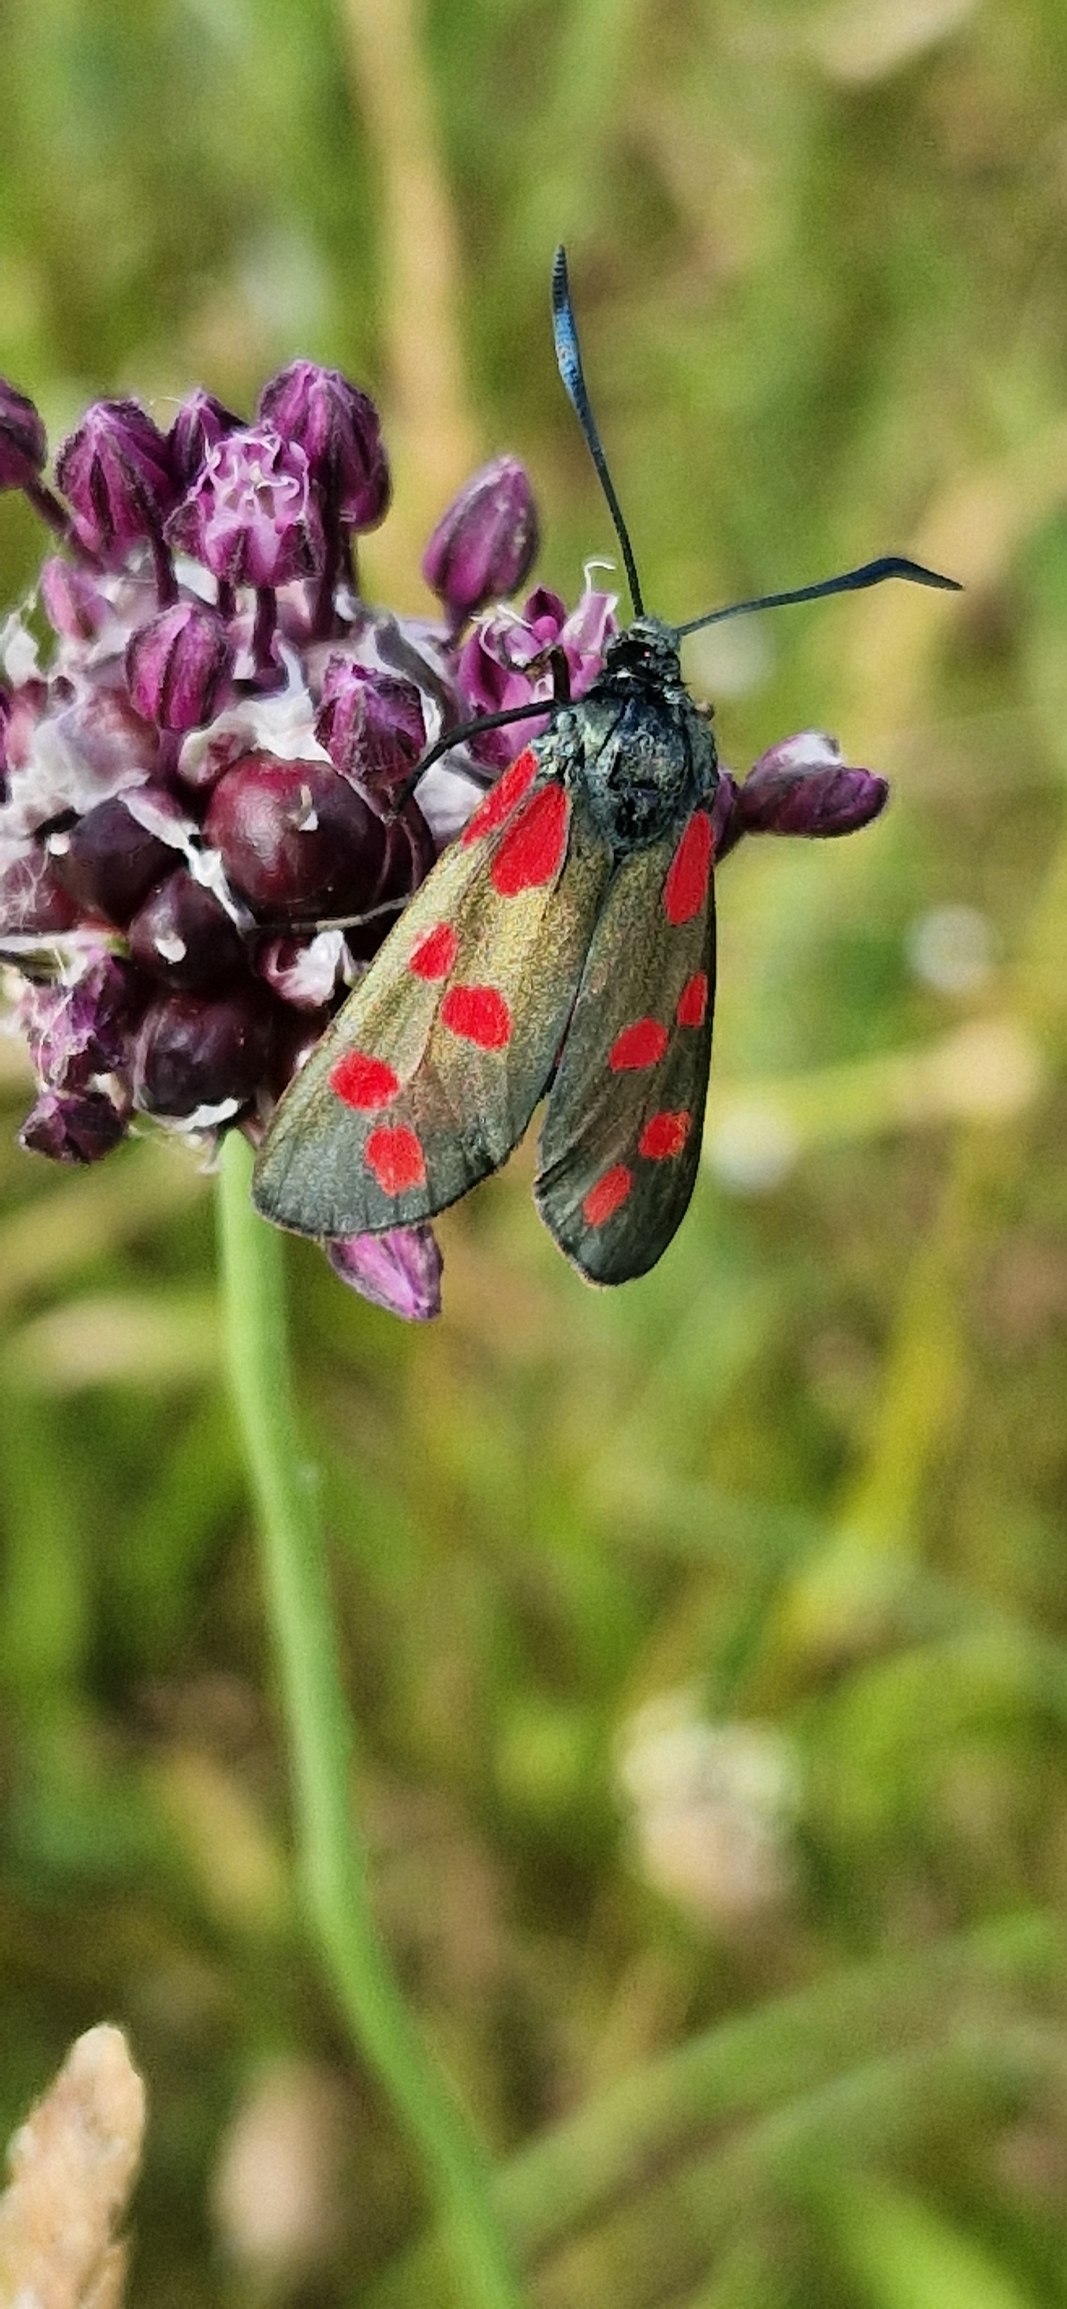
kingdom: Animalia
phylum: Arthropoda
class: Insecta
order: Lepidoptera
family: Zygaenidae
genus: Zygaena
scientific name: Zygaena filipendulae
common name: Seksplettet køllesværmer
